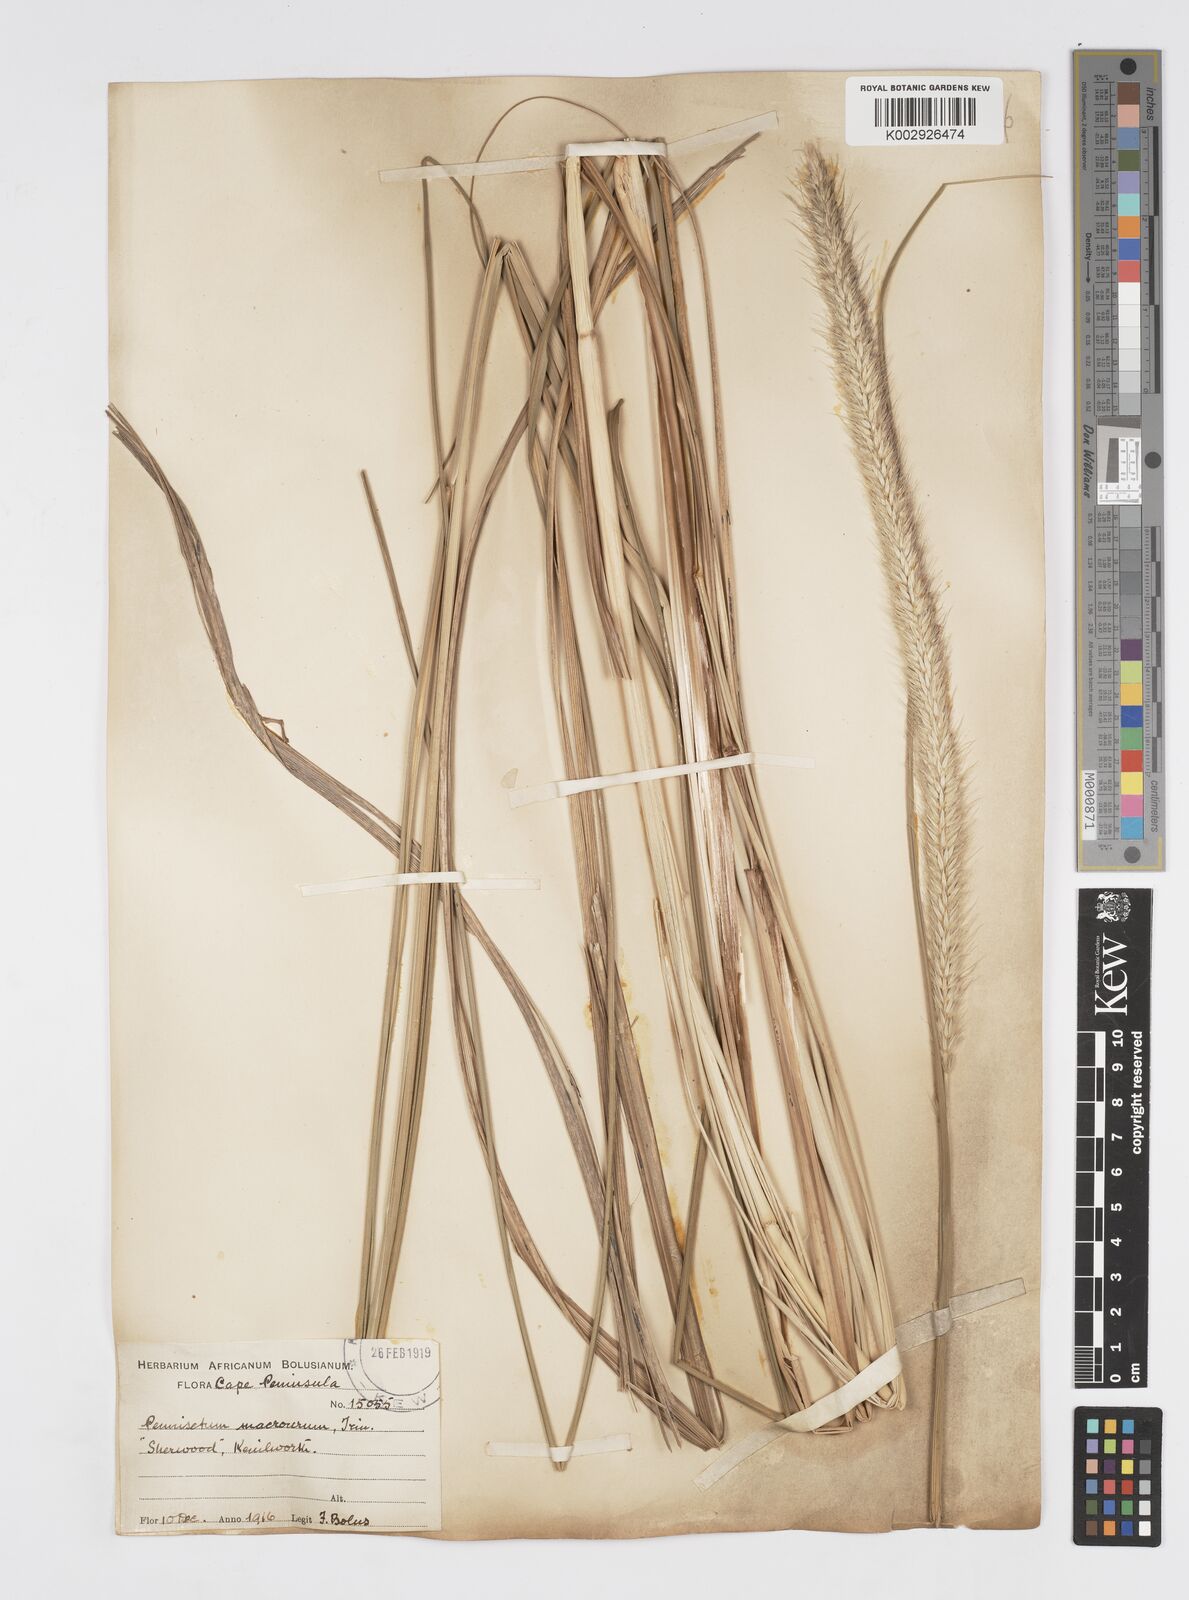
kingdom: Plantae
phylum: Tracheophyta
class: Liliopsida
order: Poales
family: Poaceae
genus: Cenchrus
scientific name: Cenchrus caudatus
